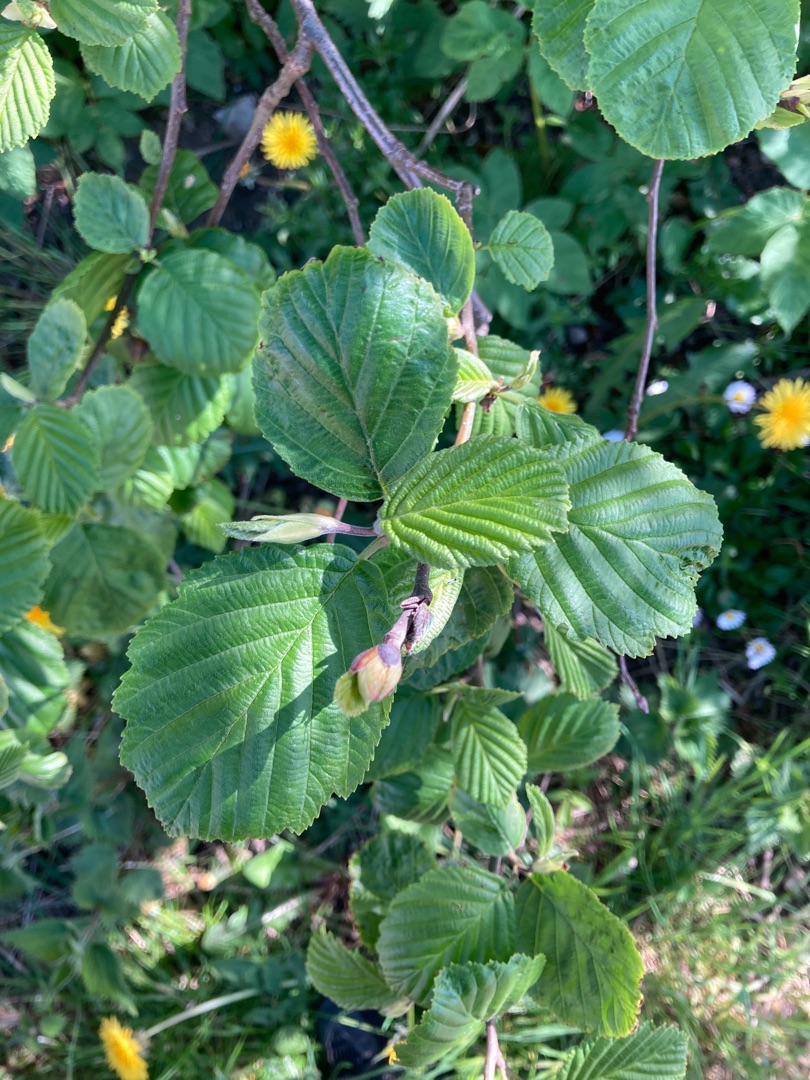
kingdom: Plantae
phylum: Tracheophyta
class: Magnoliopsida
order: Fagales
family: Betulaceae
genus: Alnus
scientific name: Alnus glutinosa
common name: Rød-el
